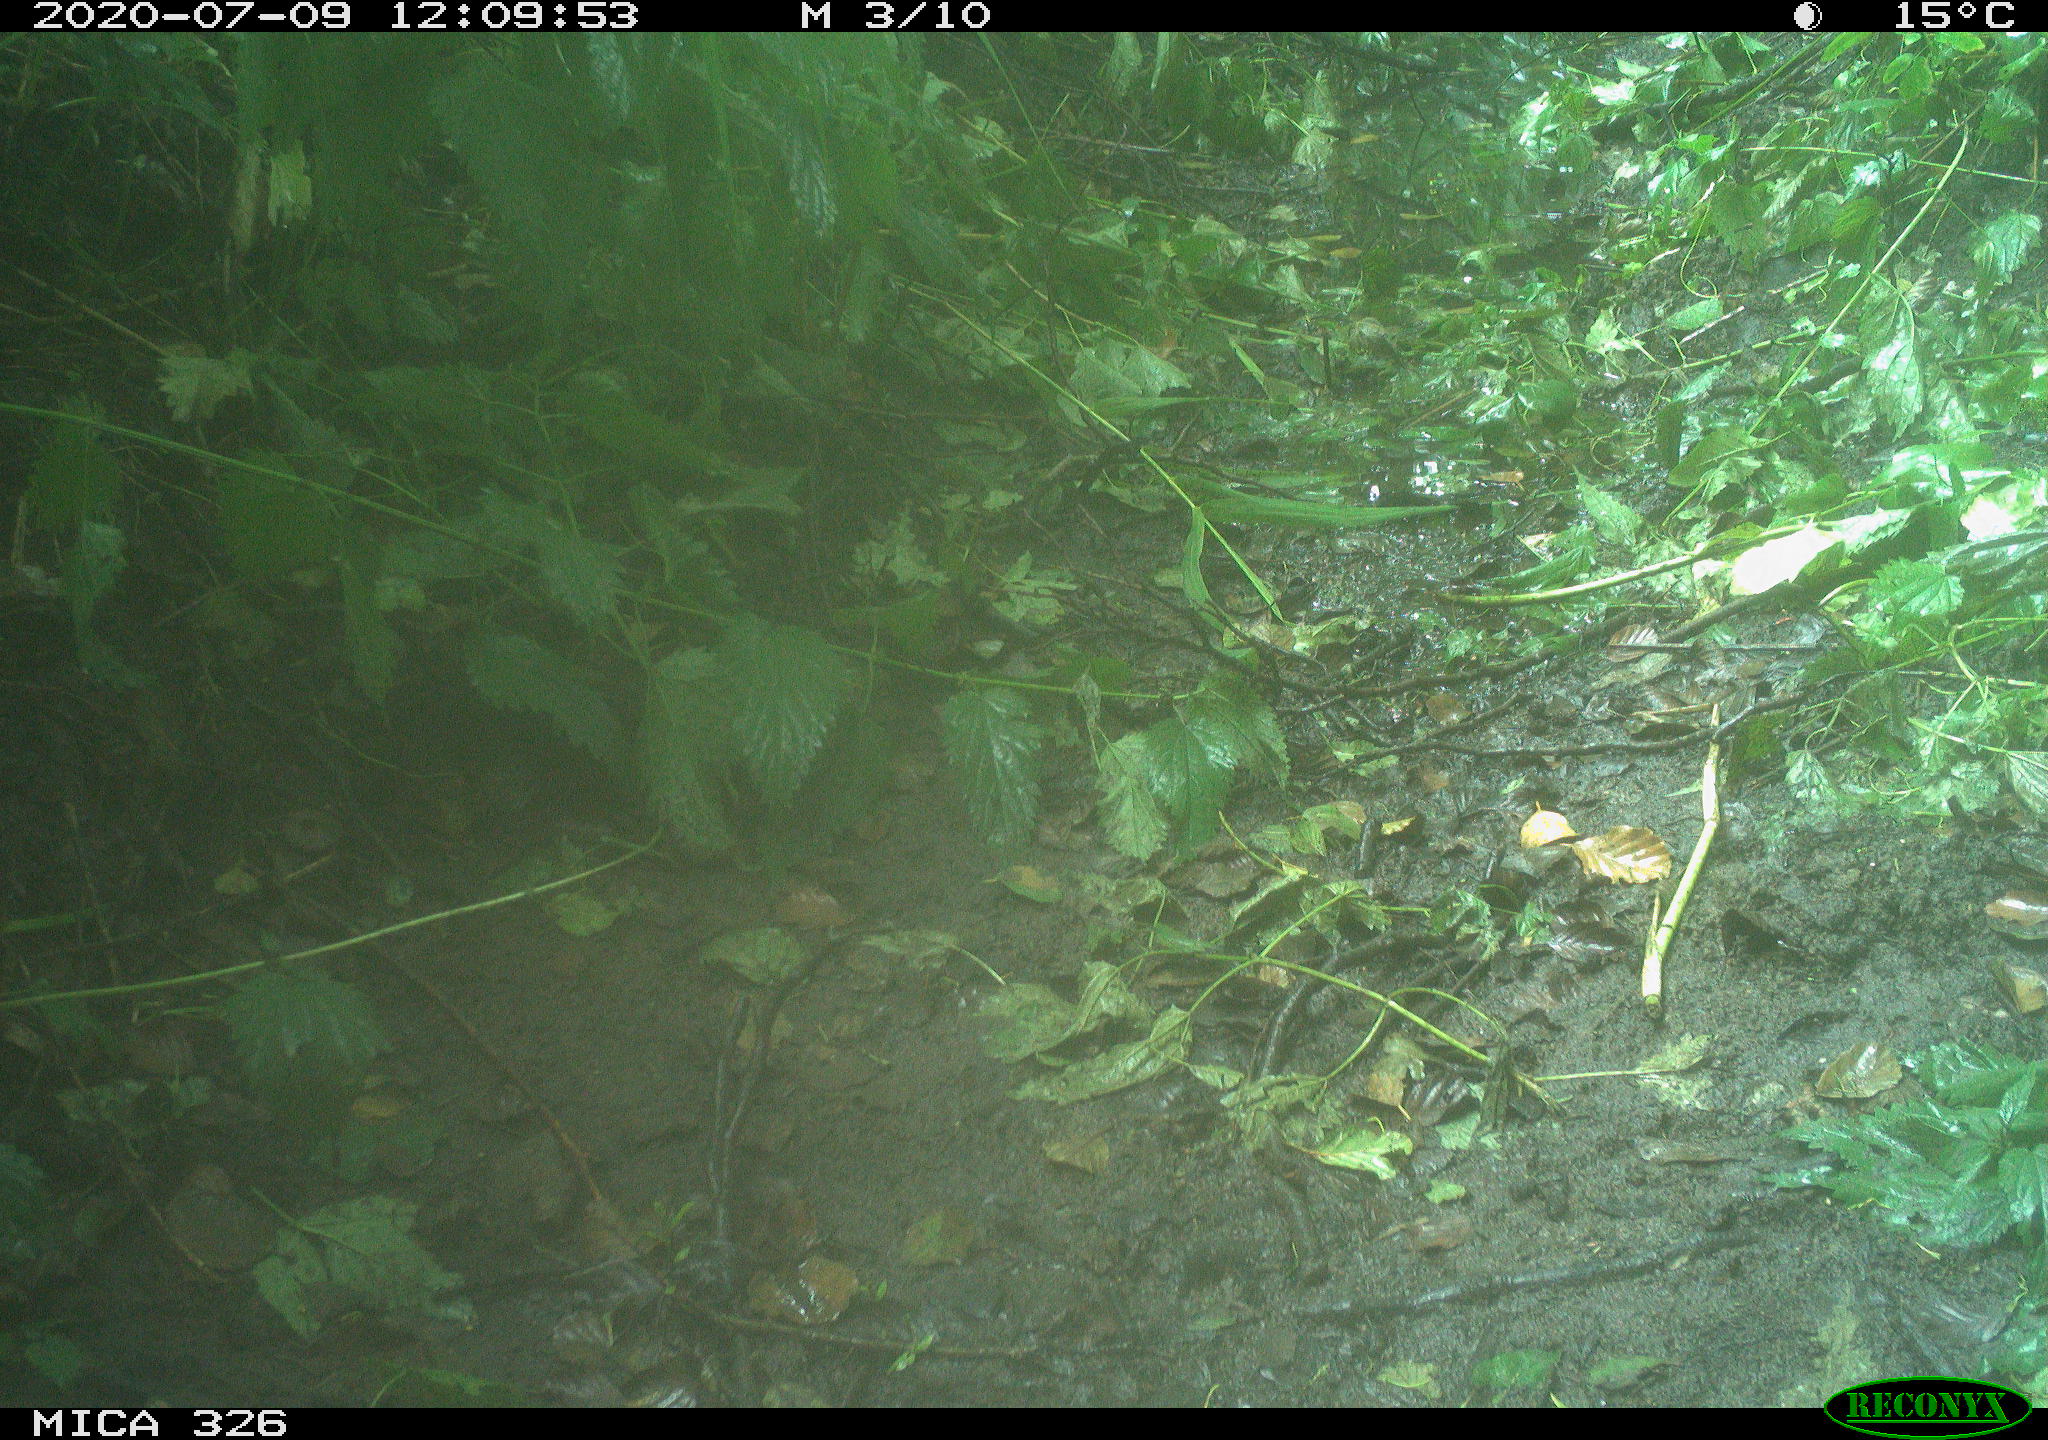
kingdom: Animalia
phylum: Chordata
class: Aves
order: Passeriformes
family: Turdidae
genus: Turdus
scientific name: Turdus merula
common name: Common blackbird
